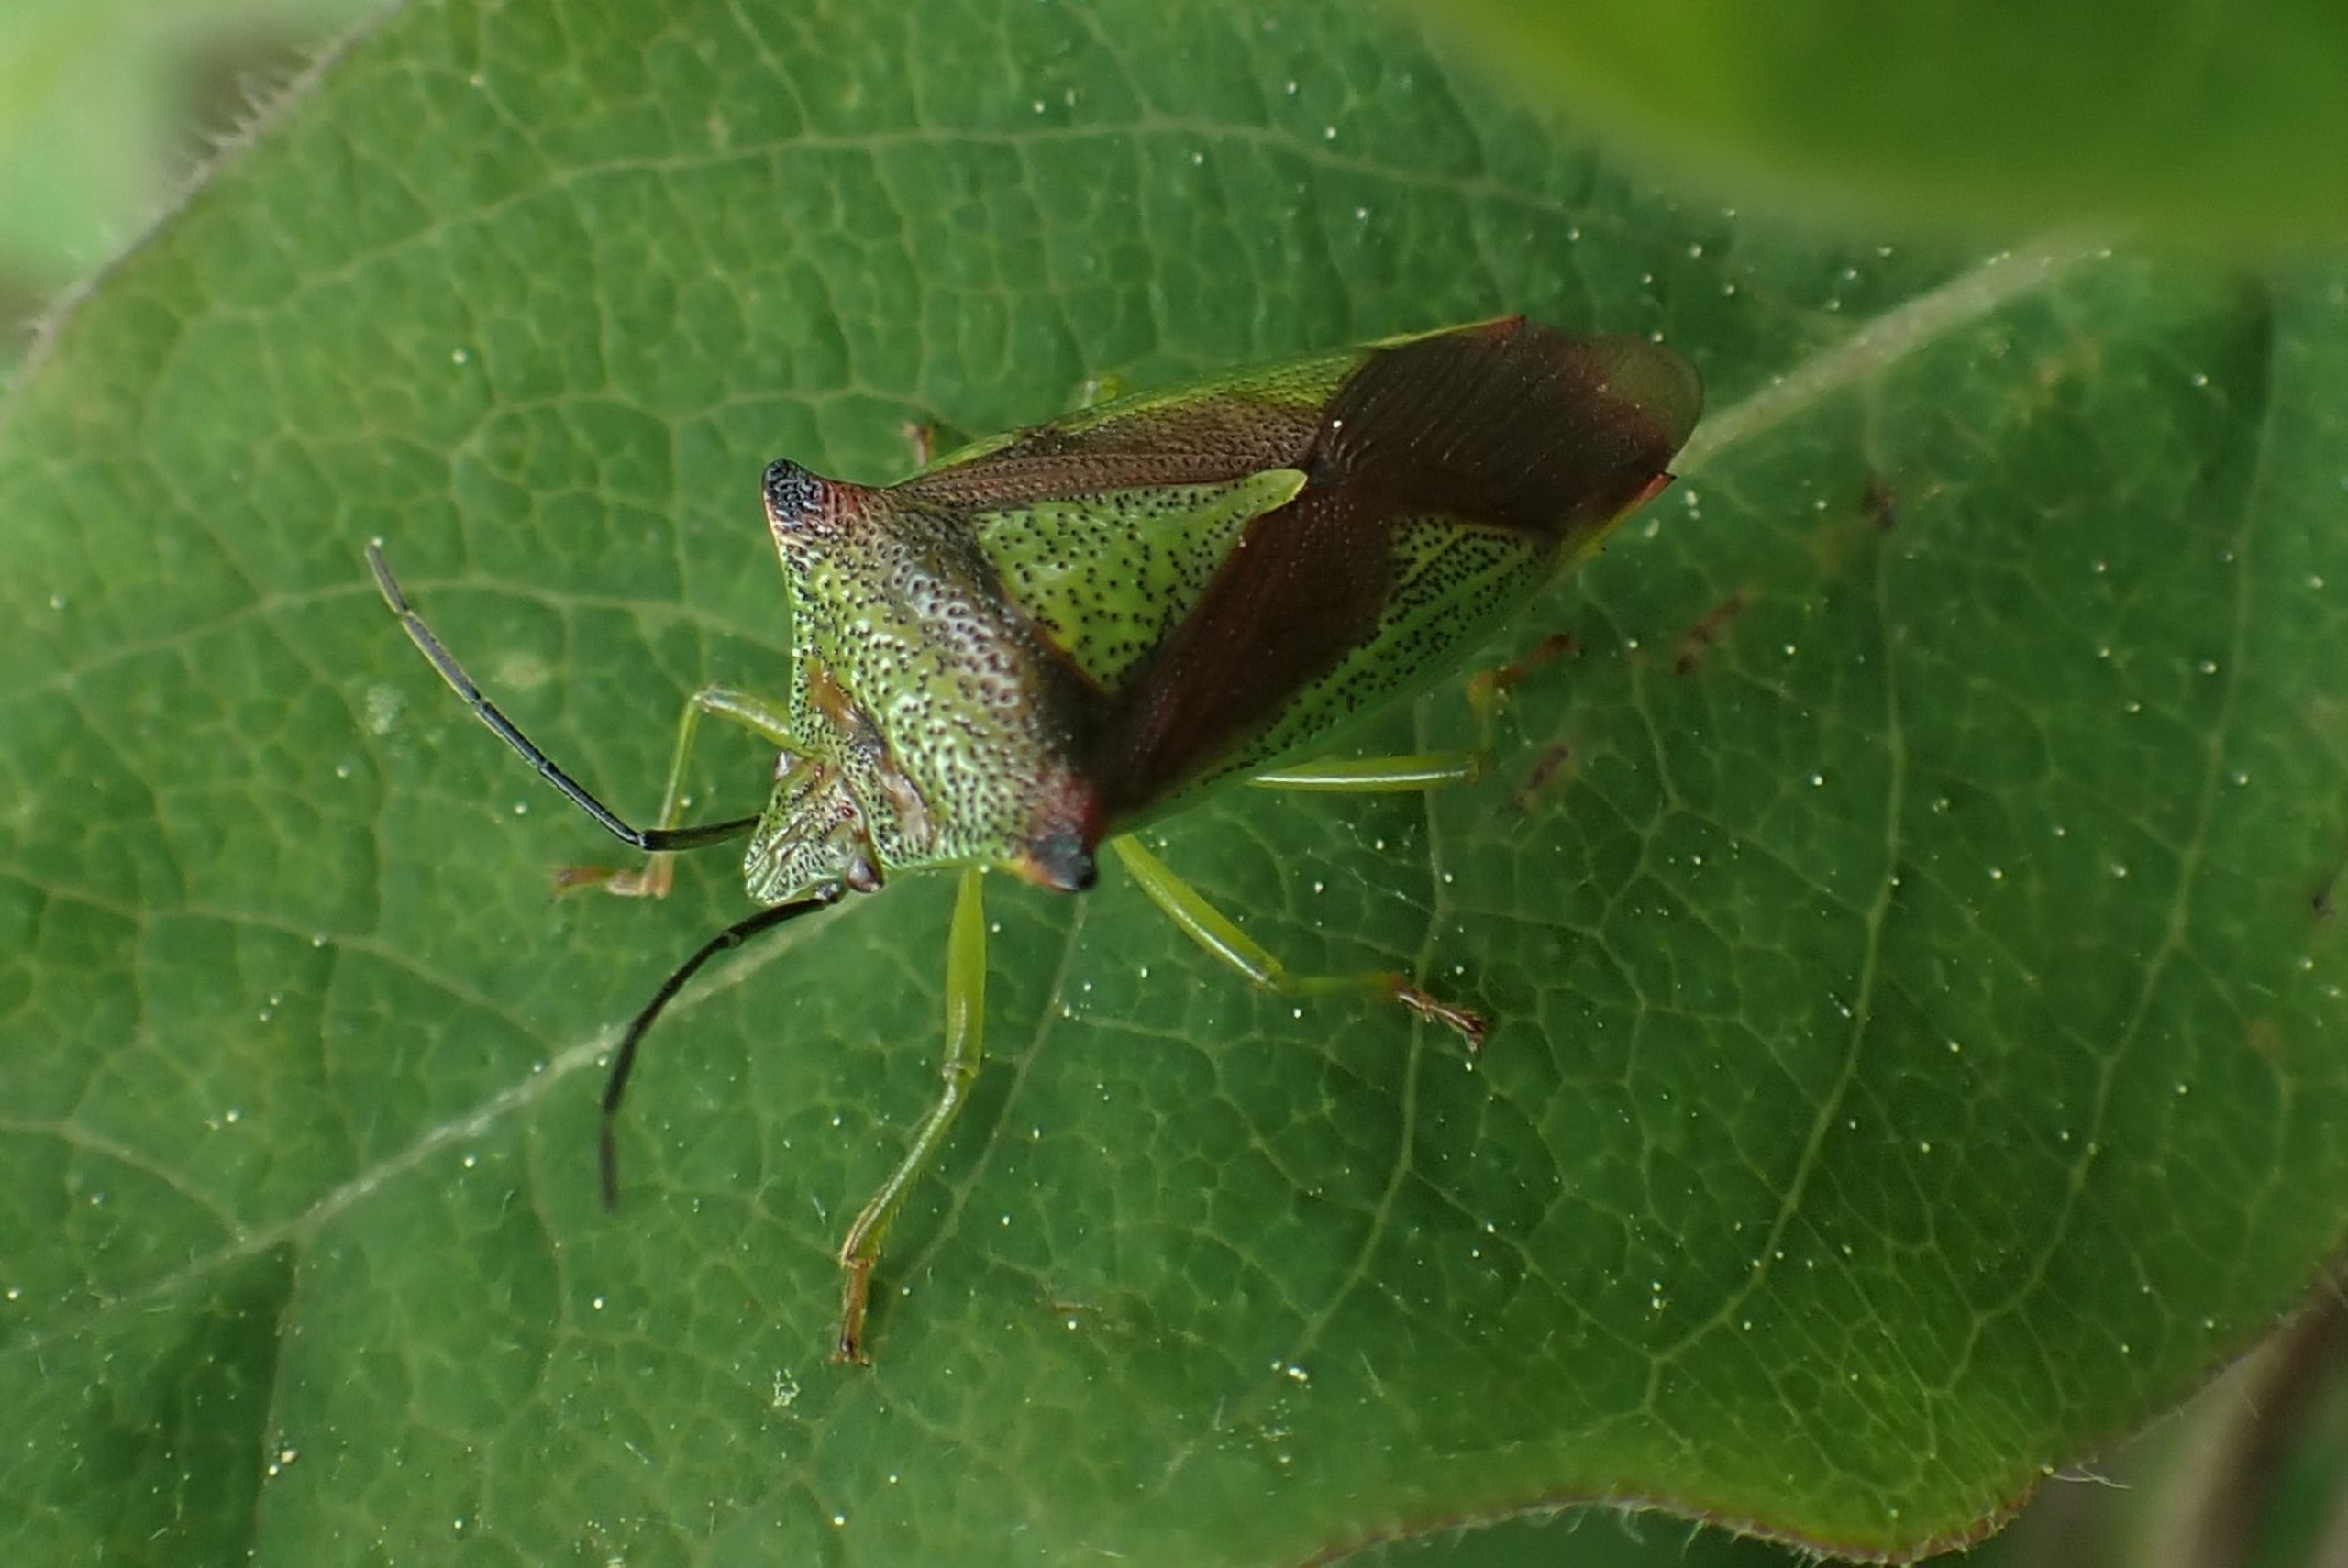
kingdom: Animalia
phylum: Arthropoda
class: Insecta
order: Hemiptera
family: Acanthosomatidae
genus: Acanthosoma
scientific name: Acanthosoma haemorrhoidale
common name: Stor løvtæge
